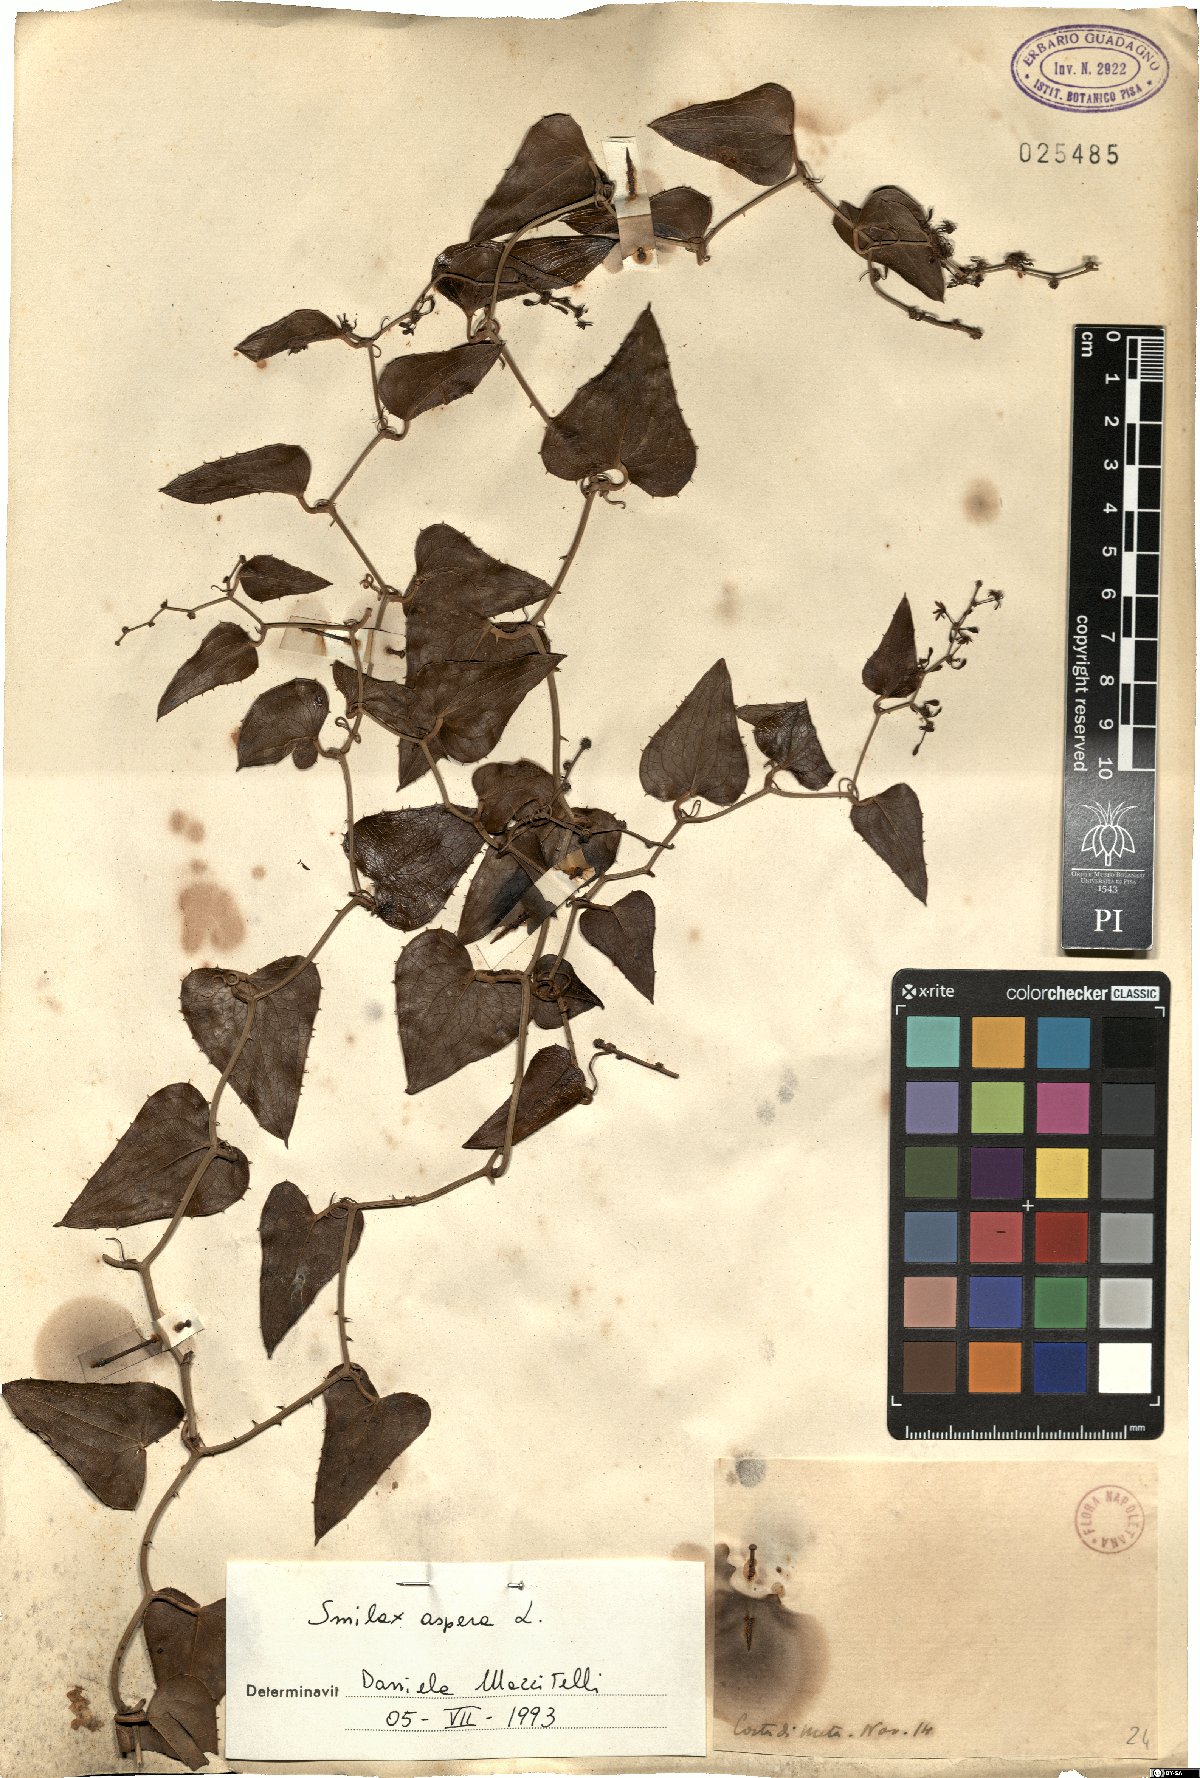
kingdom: Plantae
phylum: Tracheophyta
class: Liliopsida
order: Liliales
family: Smilacaceae
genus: Smilax
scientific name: Smilax aspera
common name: Common smilax
